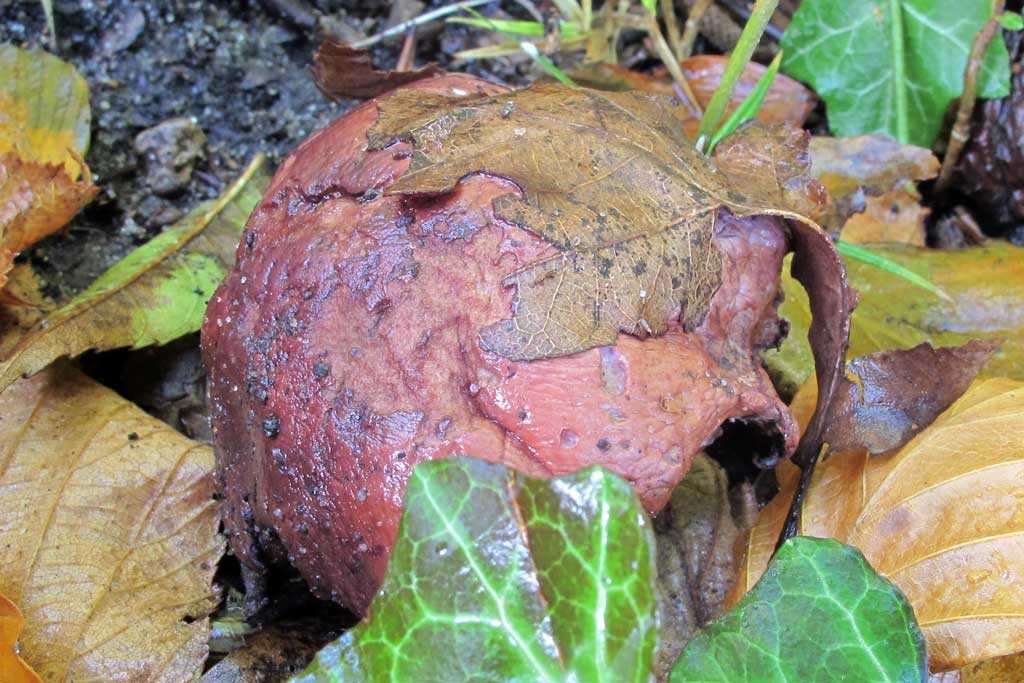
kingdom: Fungi
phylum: Basidiomycota
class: Agaricomycetes
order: Agaricales
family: Cortinariaceae
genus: Calonarius
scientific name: Calonarius rufo-olivaceus
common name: firefarvet slørhat
